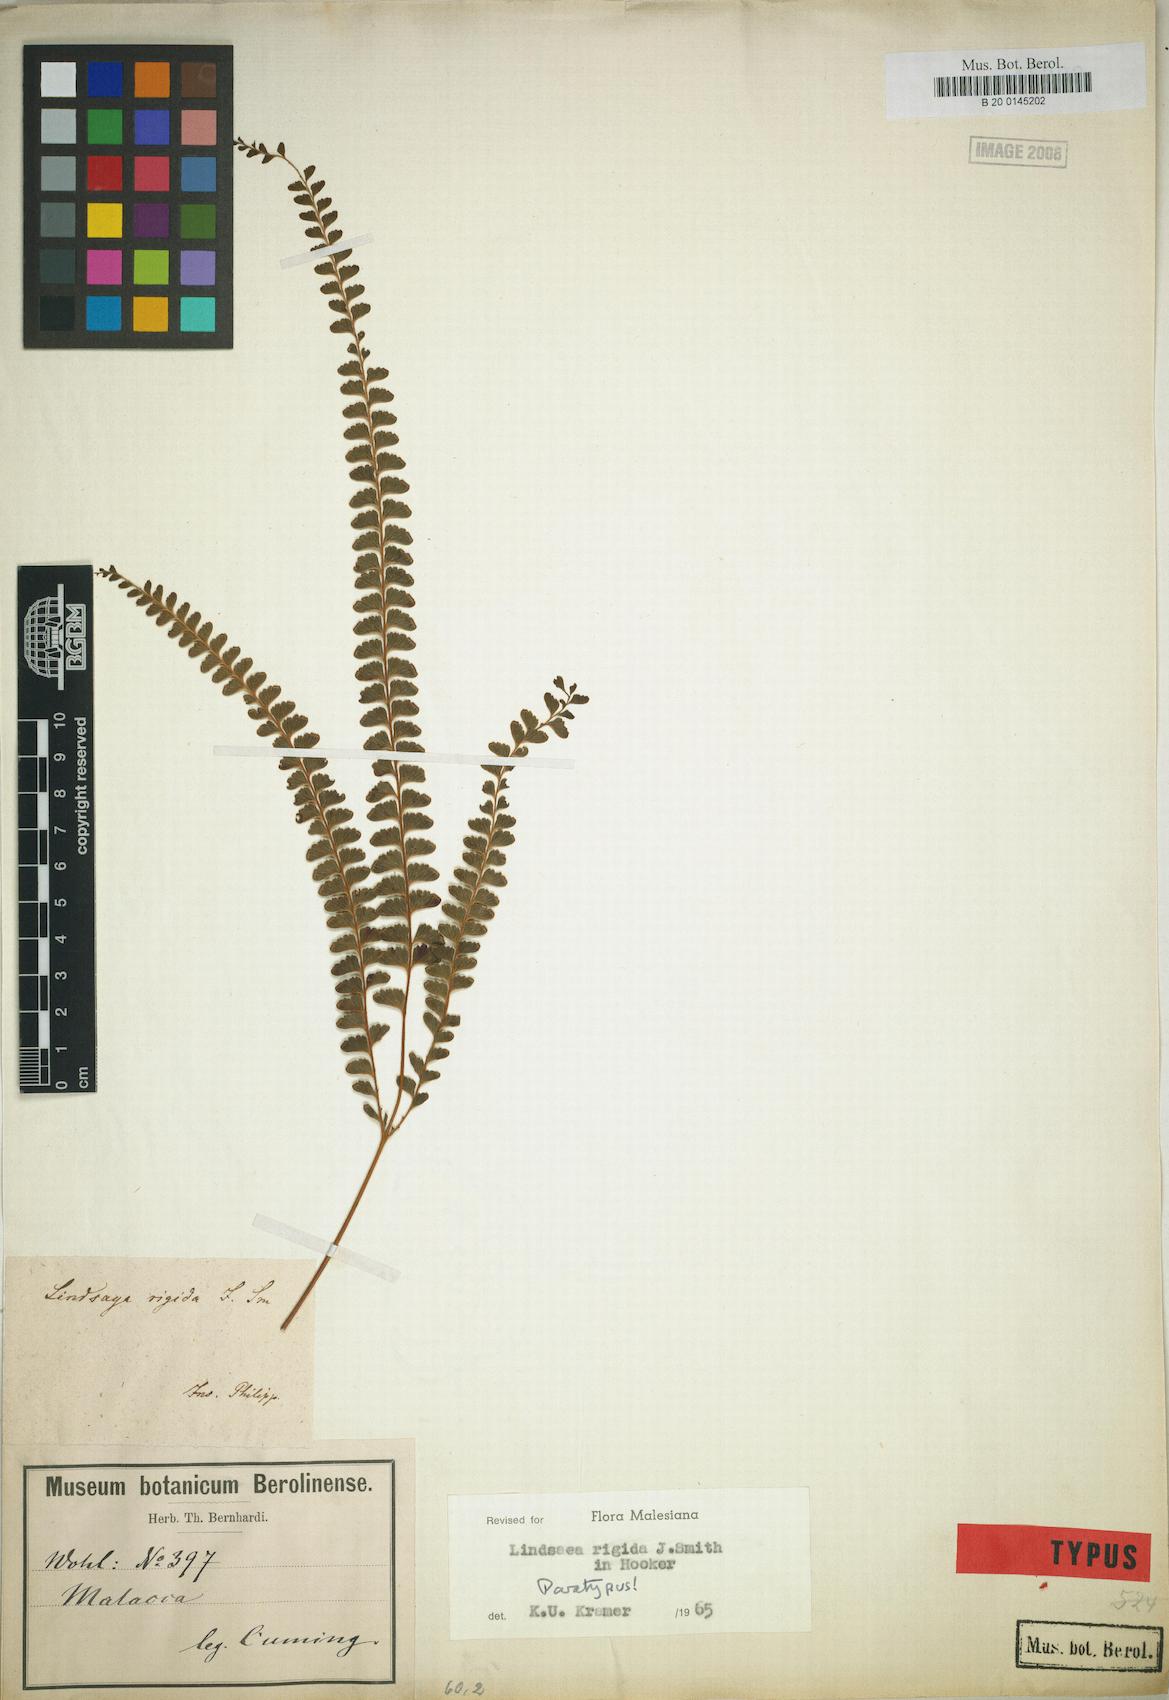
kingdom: Plantae
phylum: Tracheophyta
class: Polypodiopsida
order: Polypodiales
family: Lindsaeaceae
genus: Lindsaea
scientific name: Lindsaea rigida
